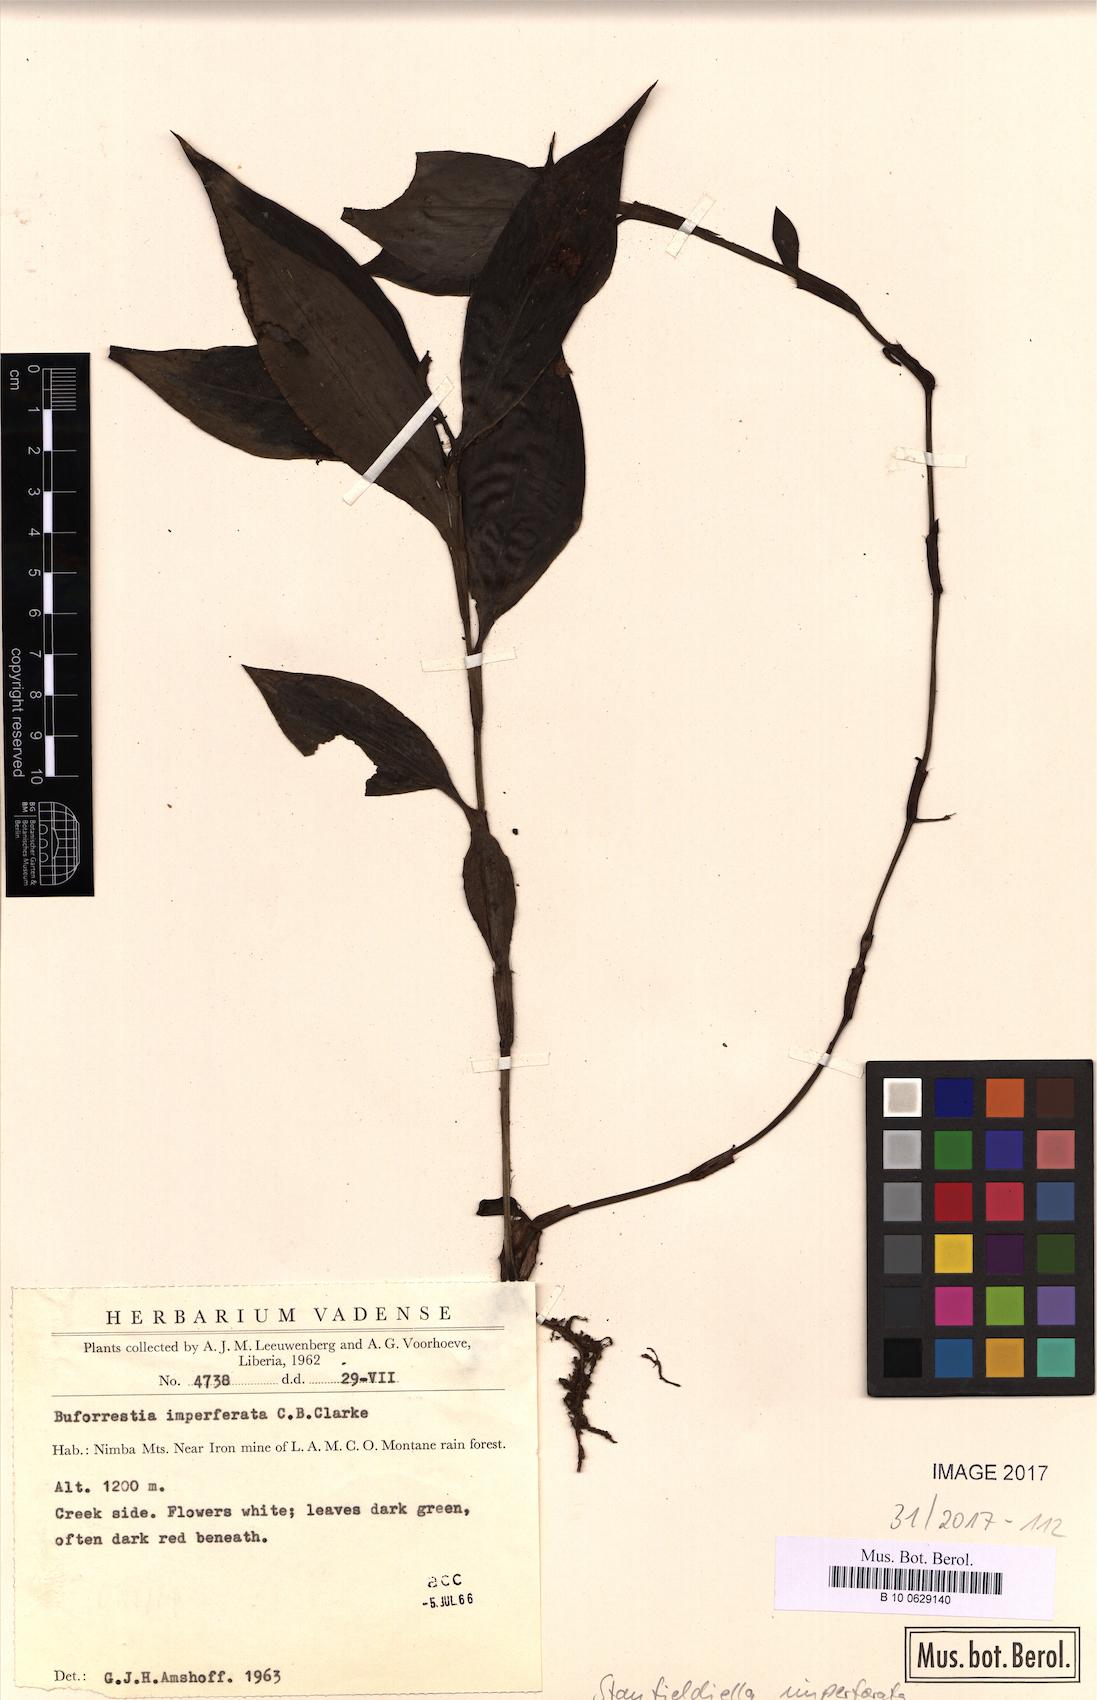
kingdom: Plantae
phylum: Tracheophyta
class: Liliopsida
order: Commelinales
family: Commelinaceae
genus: Stanfieldiella
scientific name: Stanfieldiella imperforata
